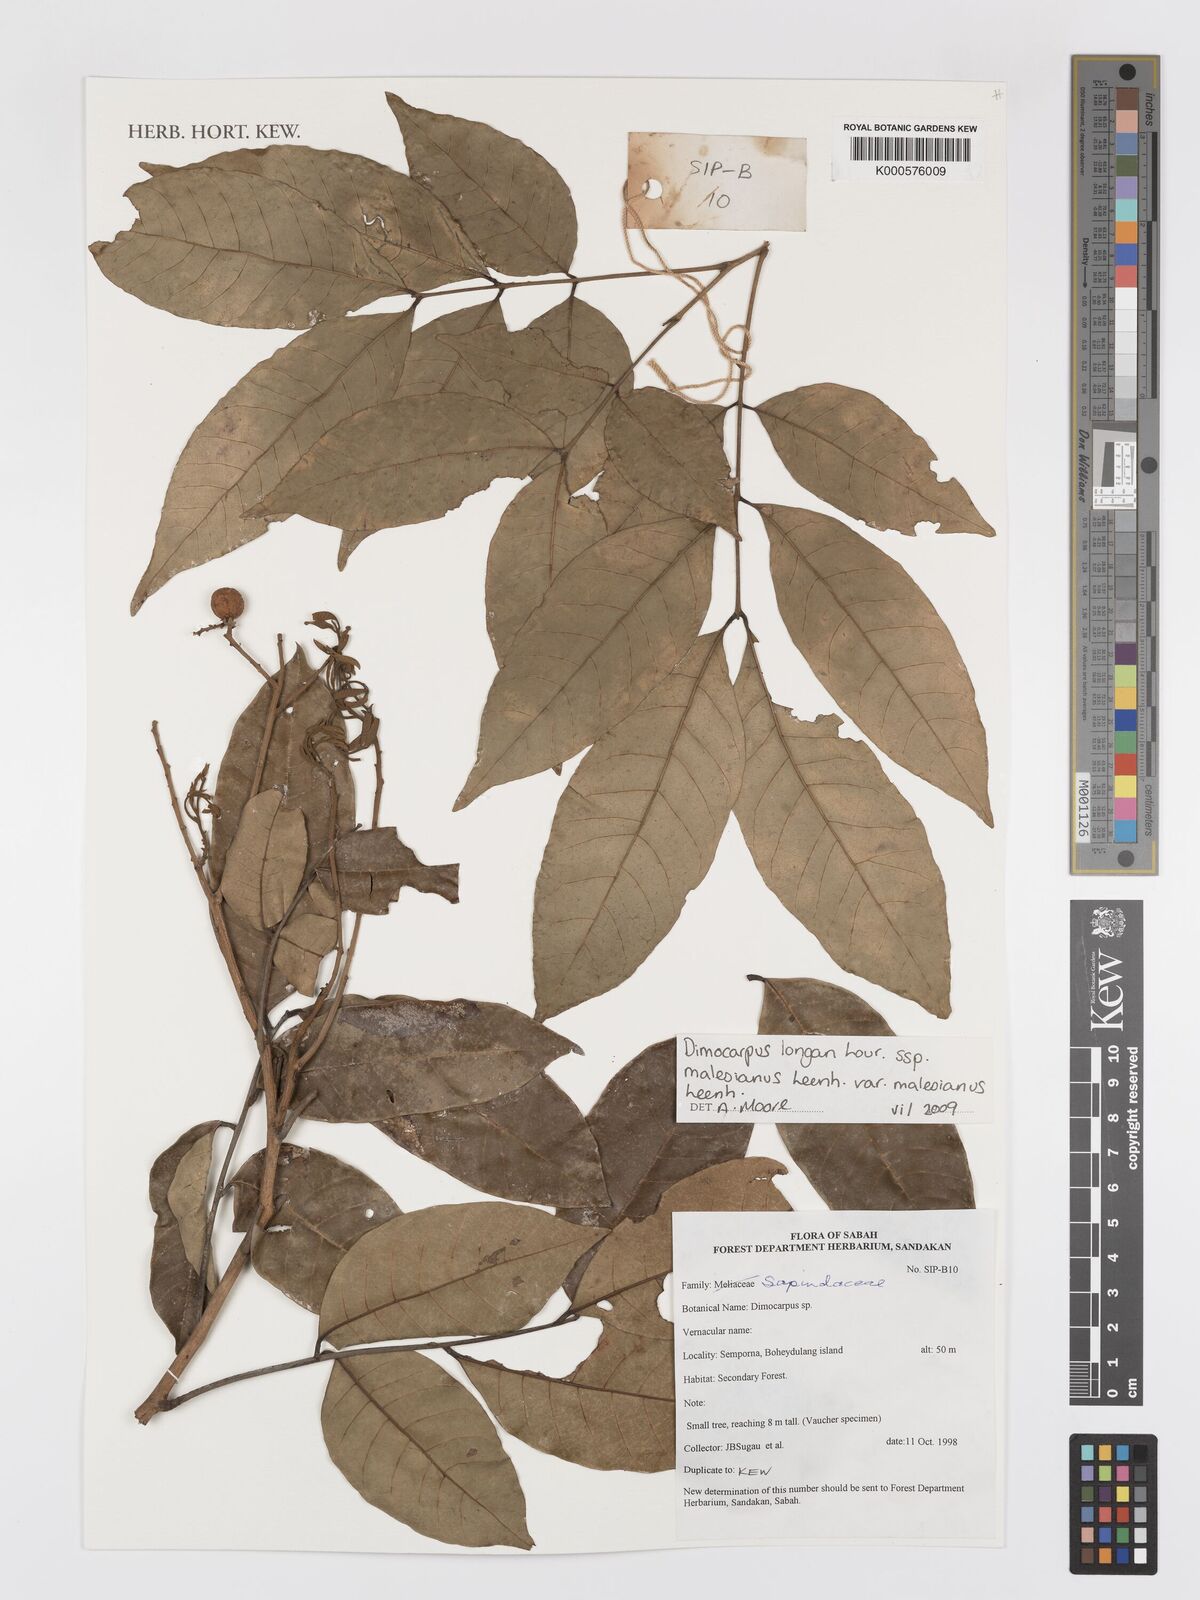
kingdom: Plantae
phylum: Tracheophyta
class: Magnoliopsida
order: Sapindales
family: Sapindaceae
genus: Nephelium
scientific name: Nephelium
